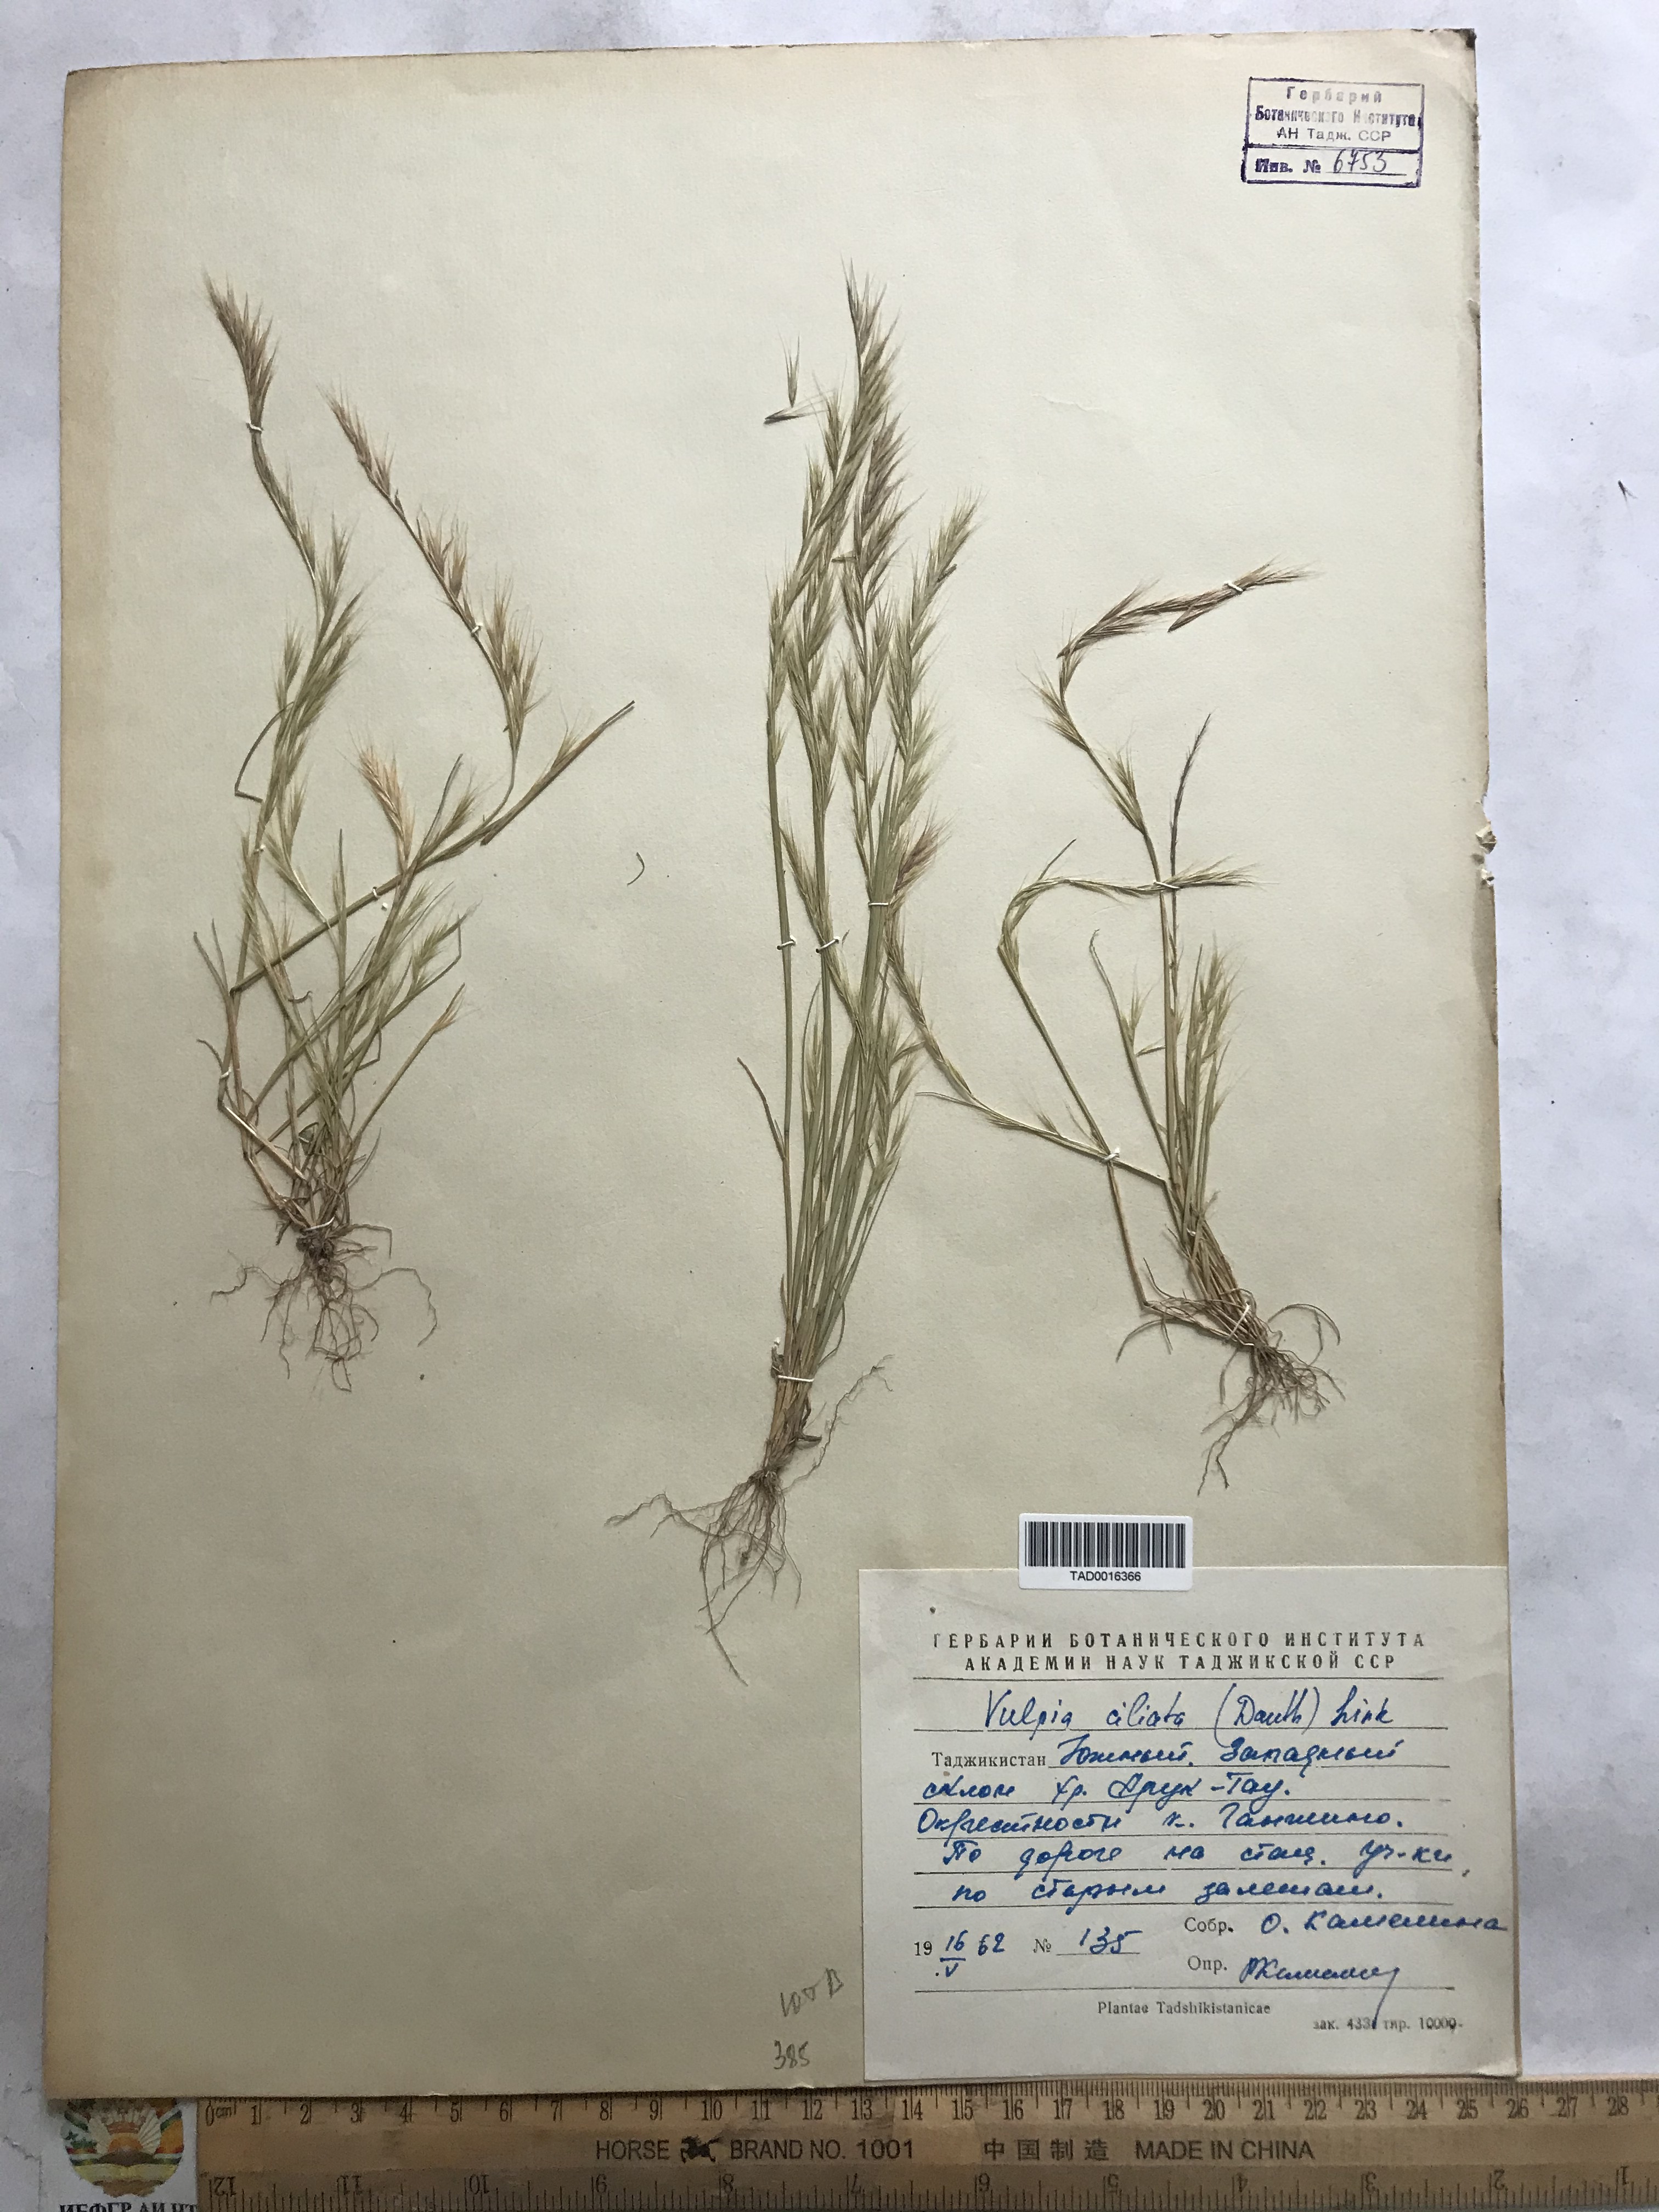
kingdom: Plantae
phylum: Tracheophyta
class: Liliopsida
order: Poales
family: Poaceae
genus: Festuca
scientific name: Festuca ambigua
